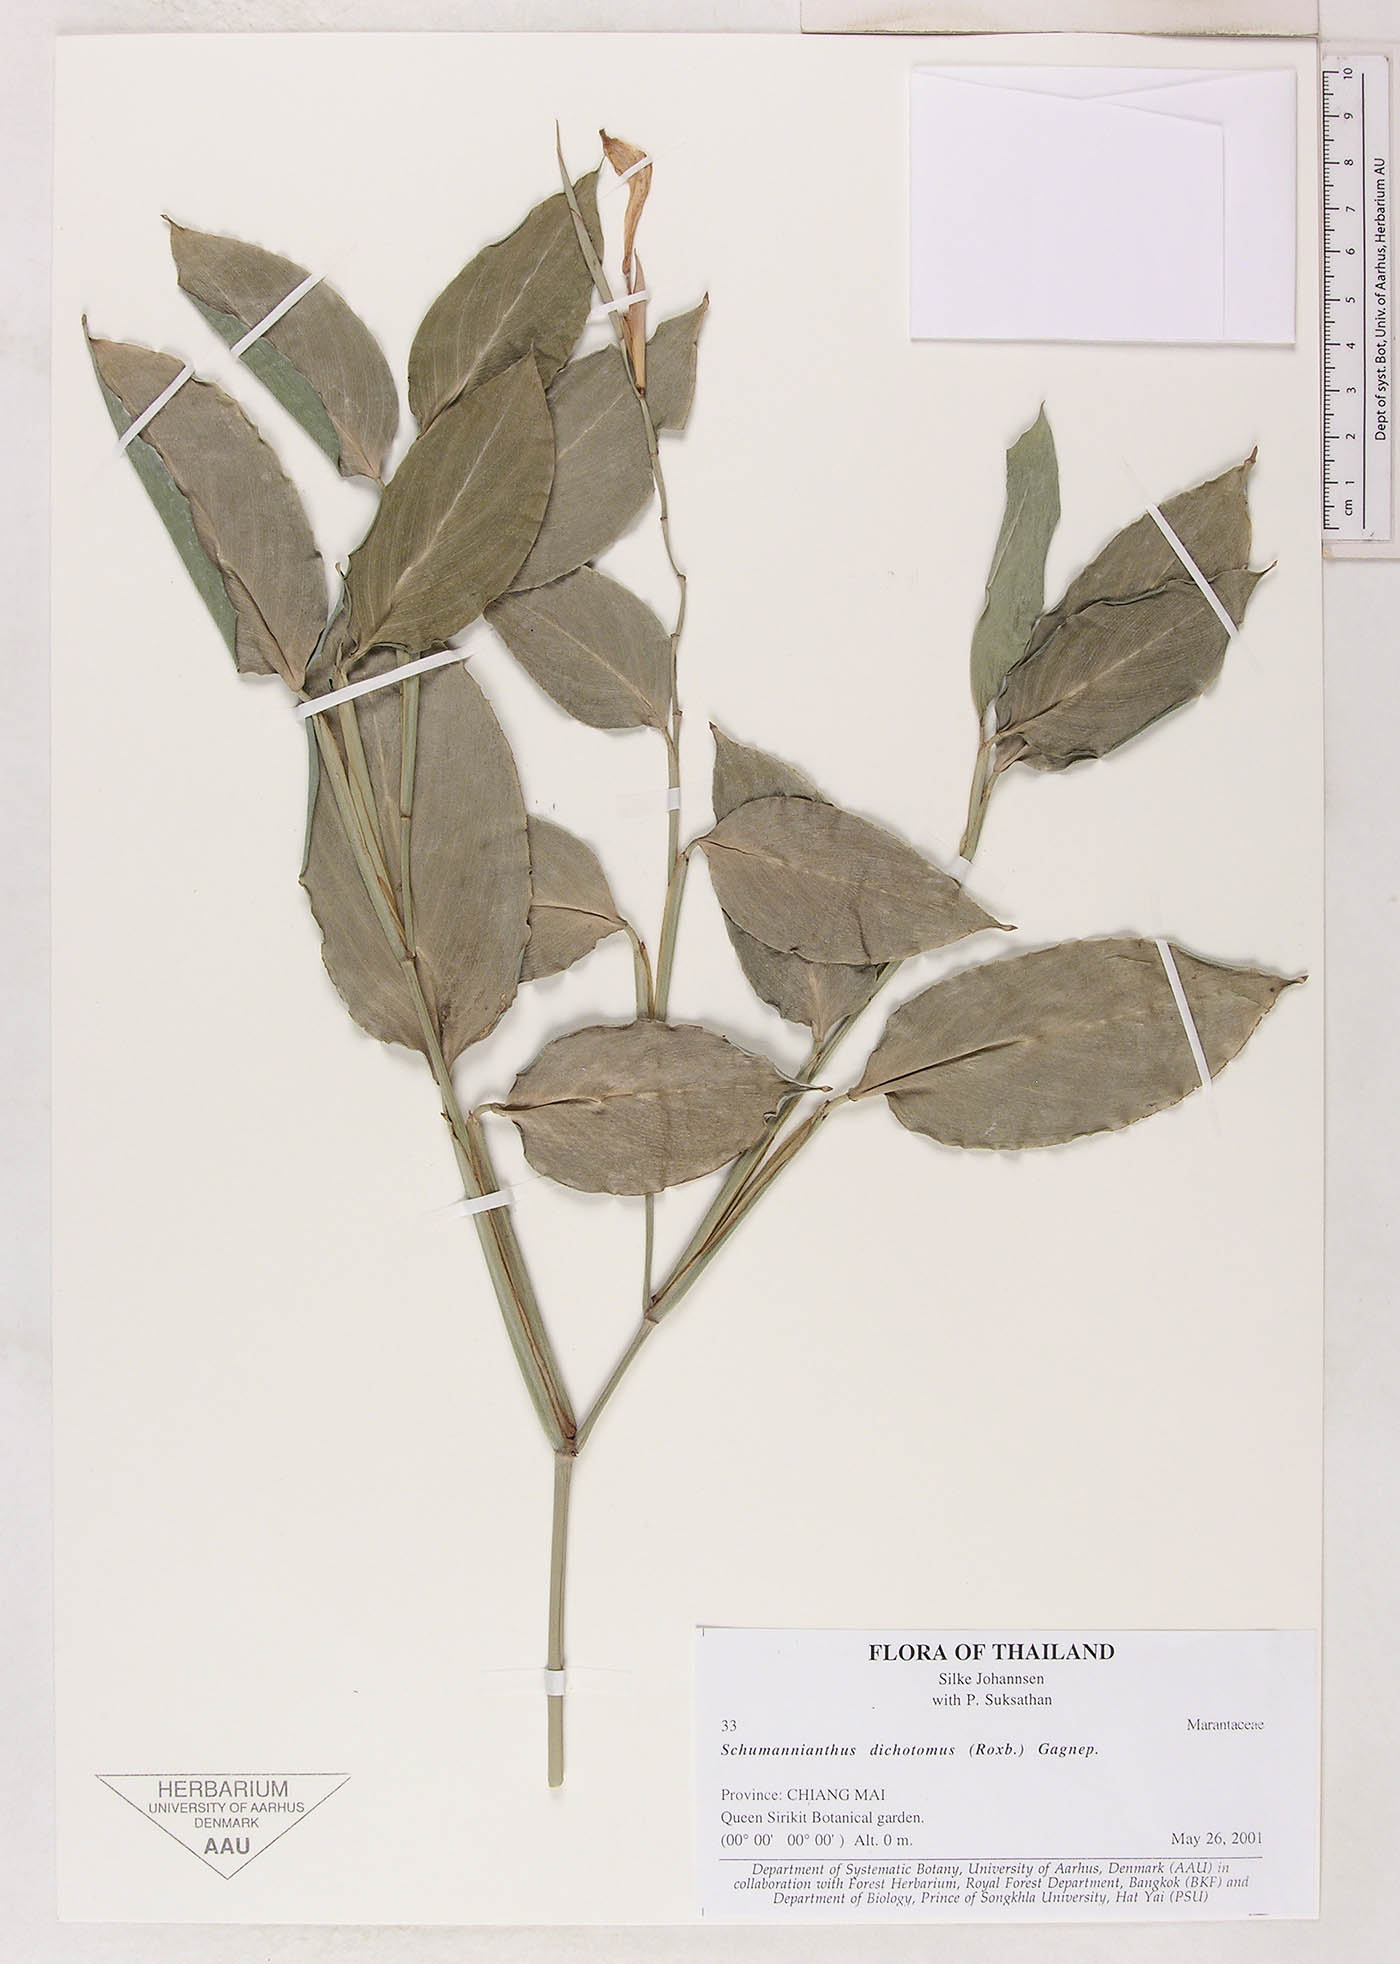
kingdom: Plantae
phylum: Tracheophyta
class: Liliopsida
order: Zingiberales
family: Marantaceae
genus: Schumannianthus
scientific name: Schumannianthus benthamianus
